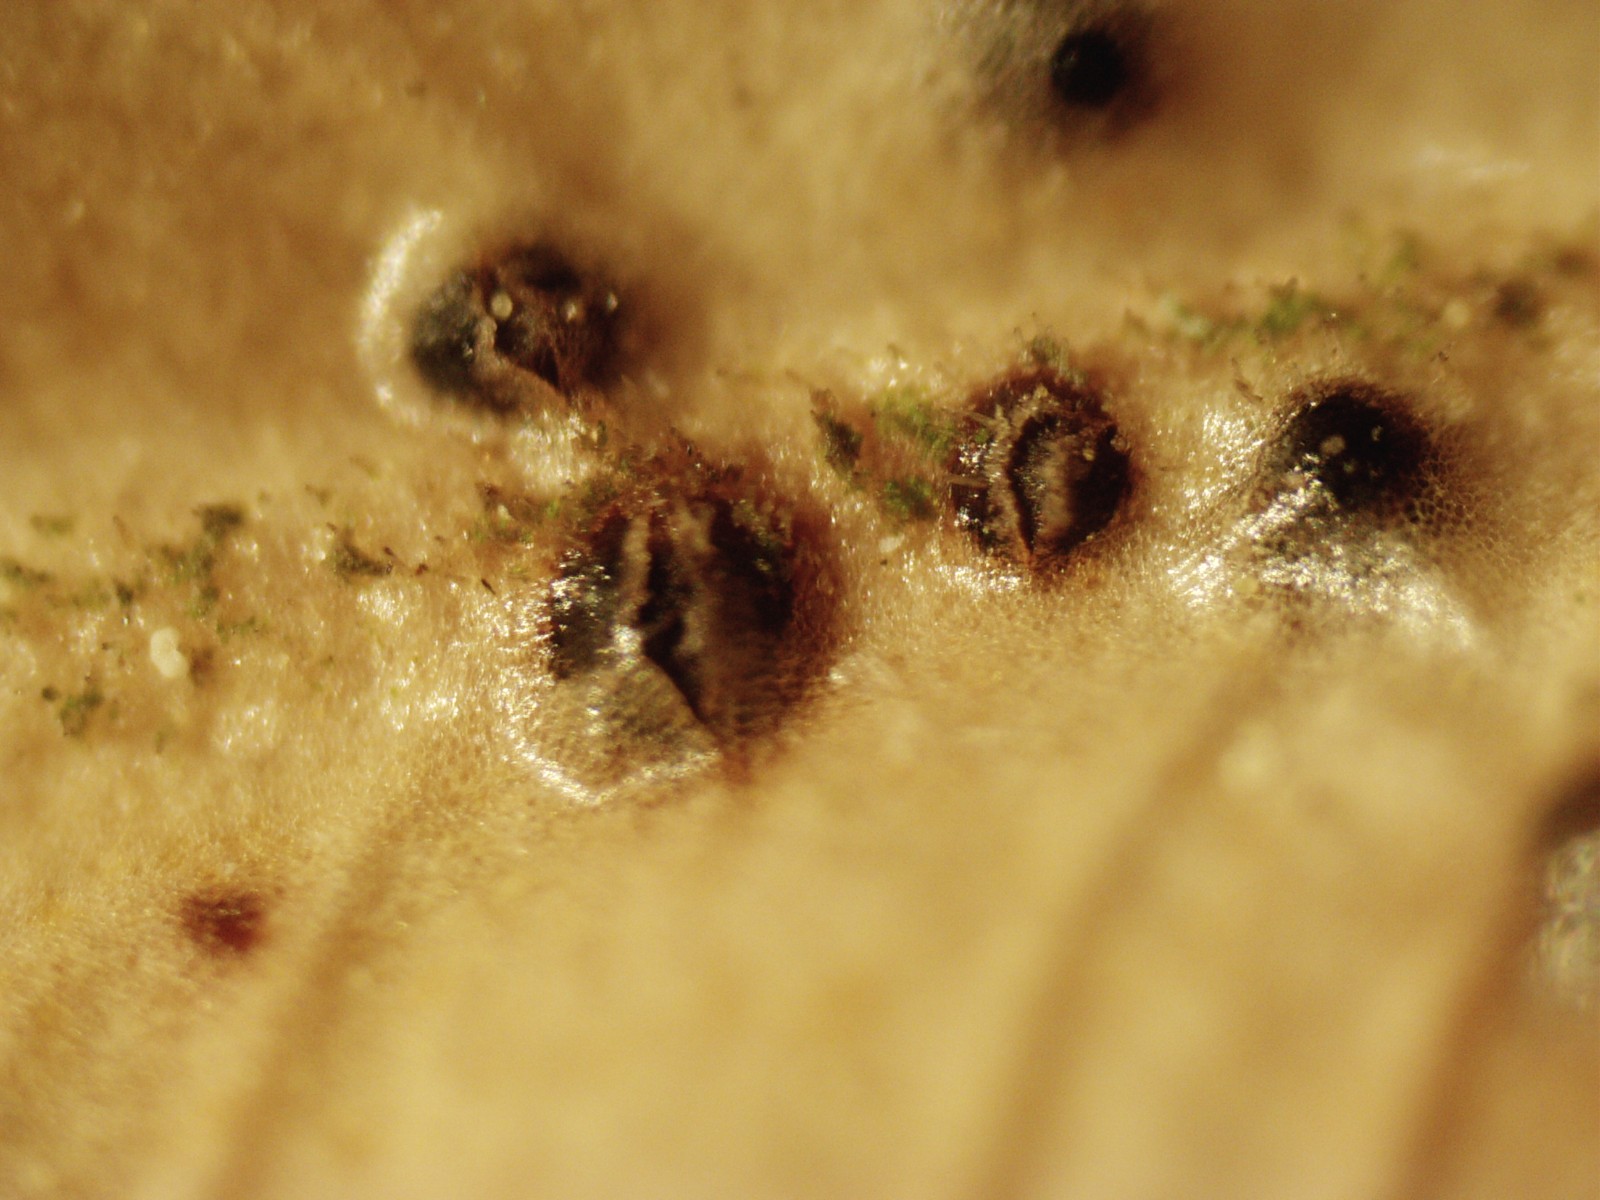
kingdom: Fungi
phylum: Ascomycota
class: Sordariomycetes
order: Diaporthales
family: Diaporthaceae
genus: Diaporthe
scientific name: Diaporthe stictica
